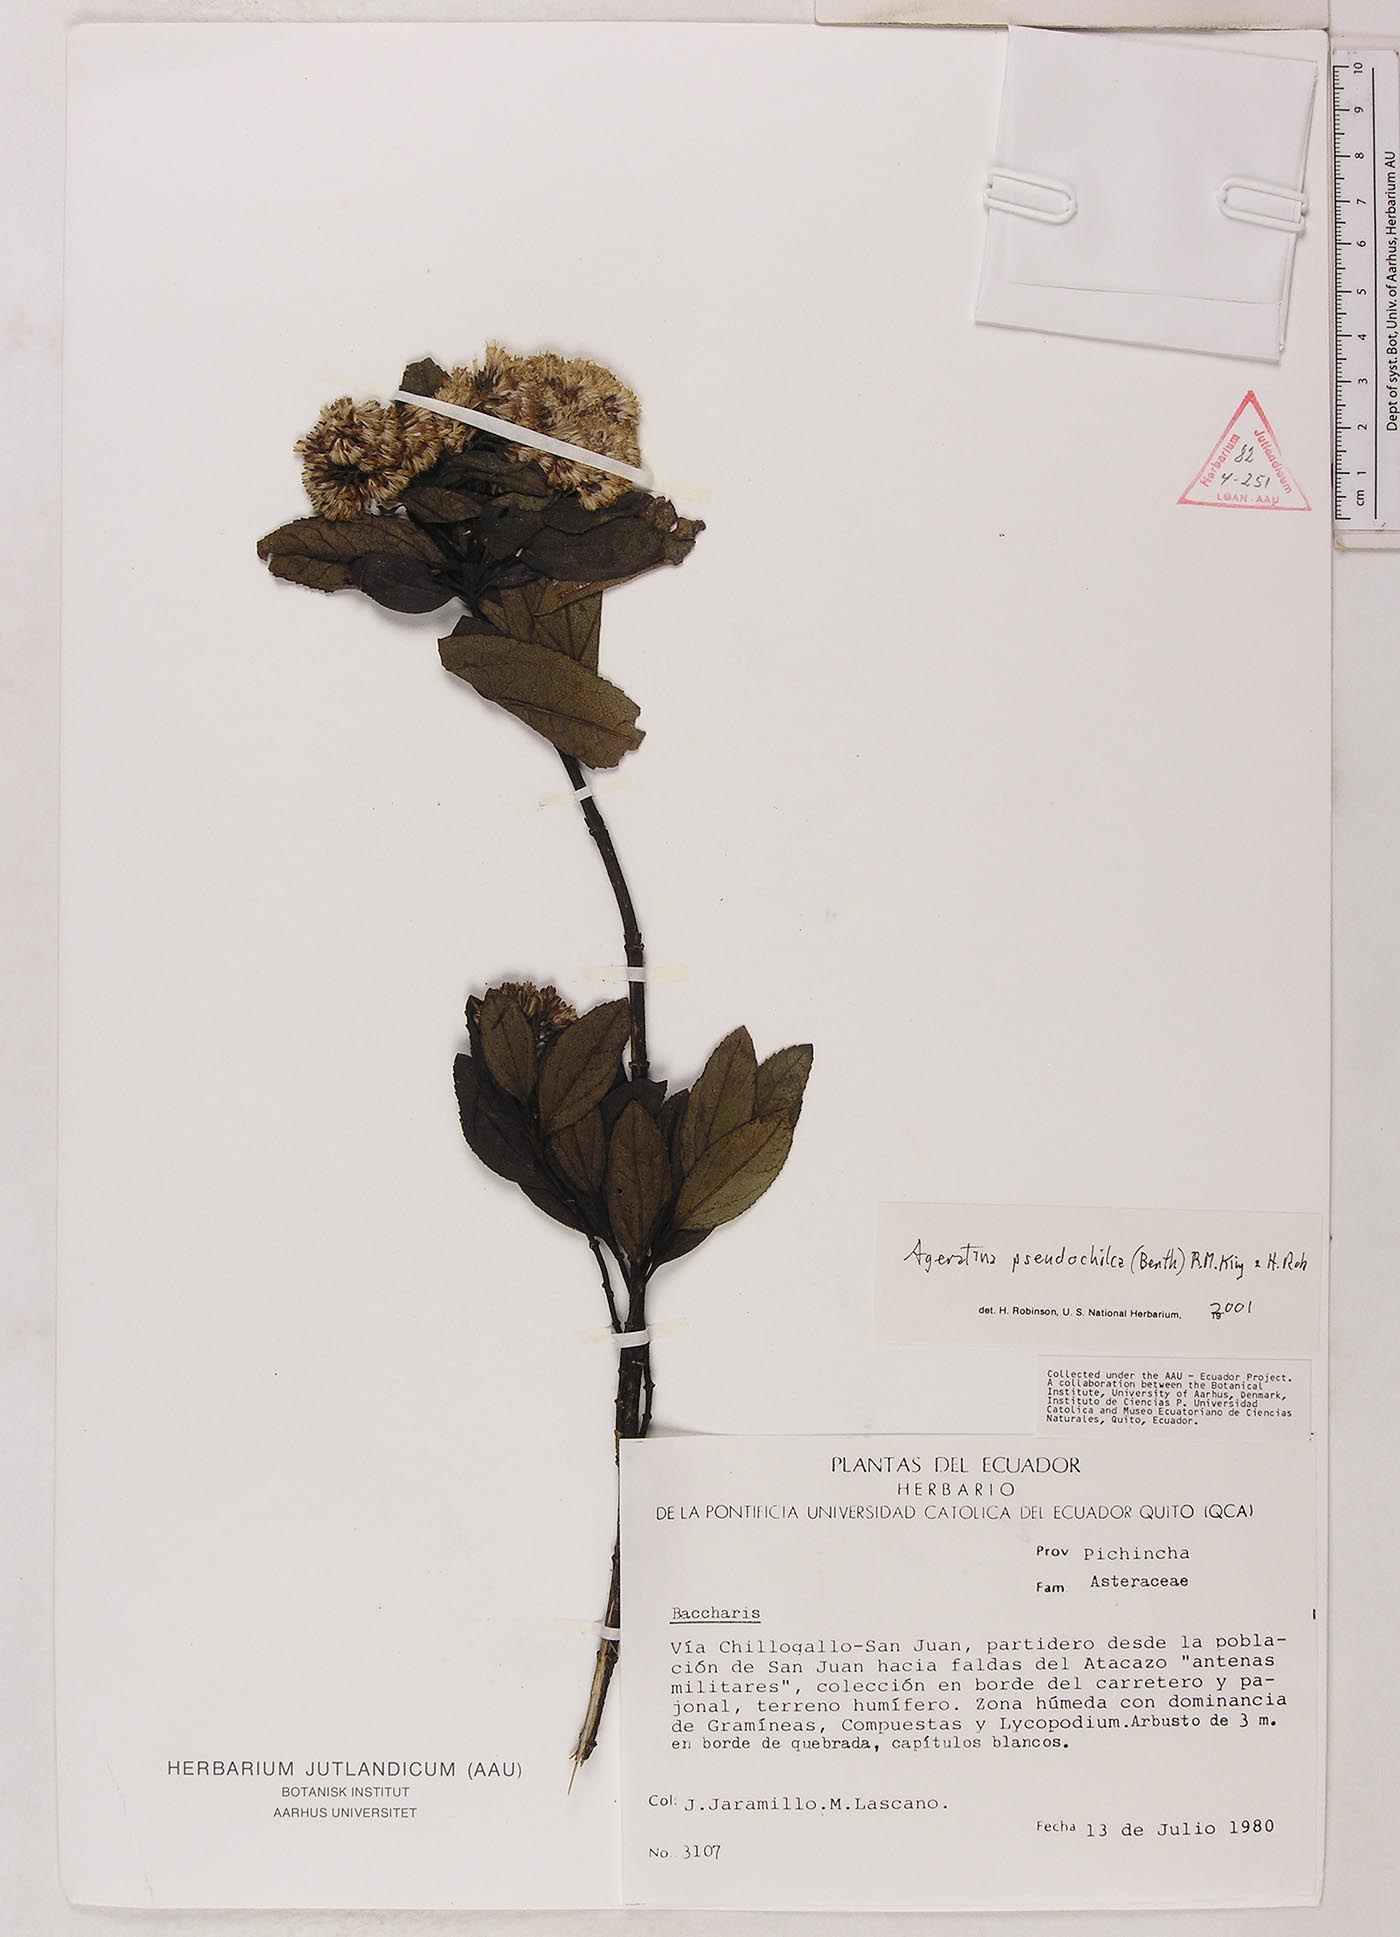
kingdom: Plantae
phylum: Tracheophyta
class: Magnoliopsida
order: Asterales
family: Asteraceae
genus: Ageratina
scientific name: Ageratina pseudochilca
